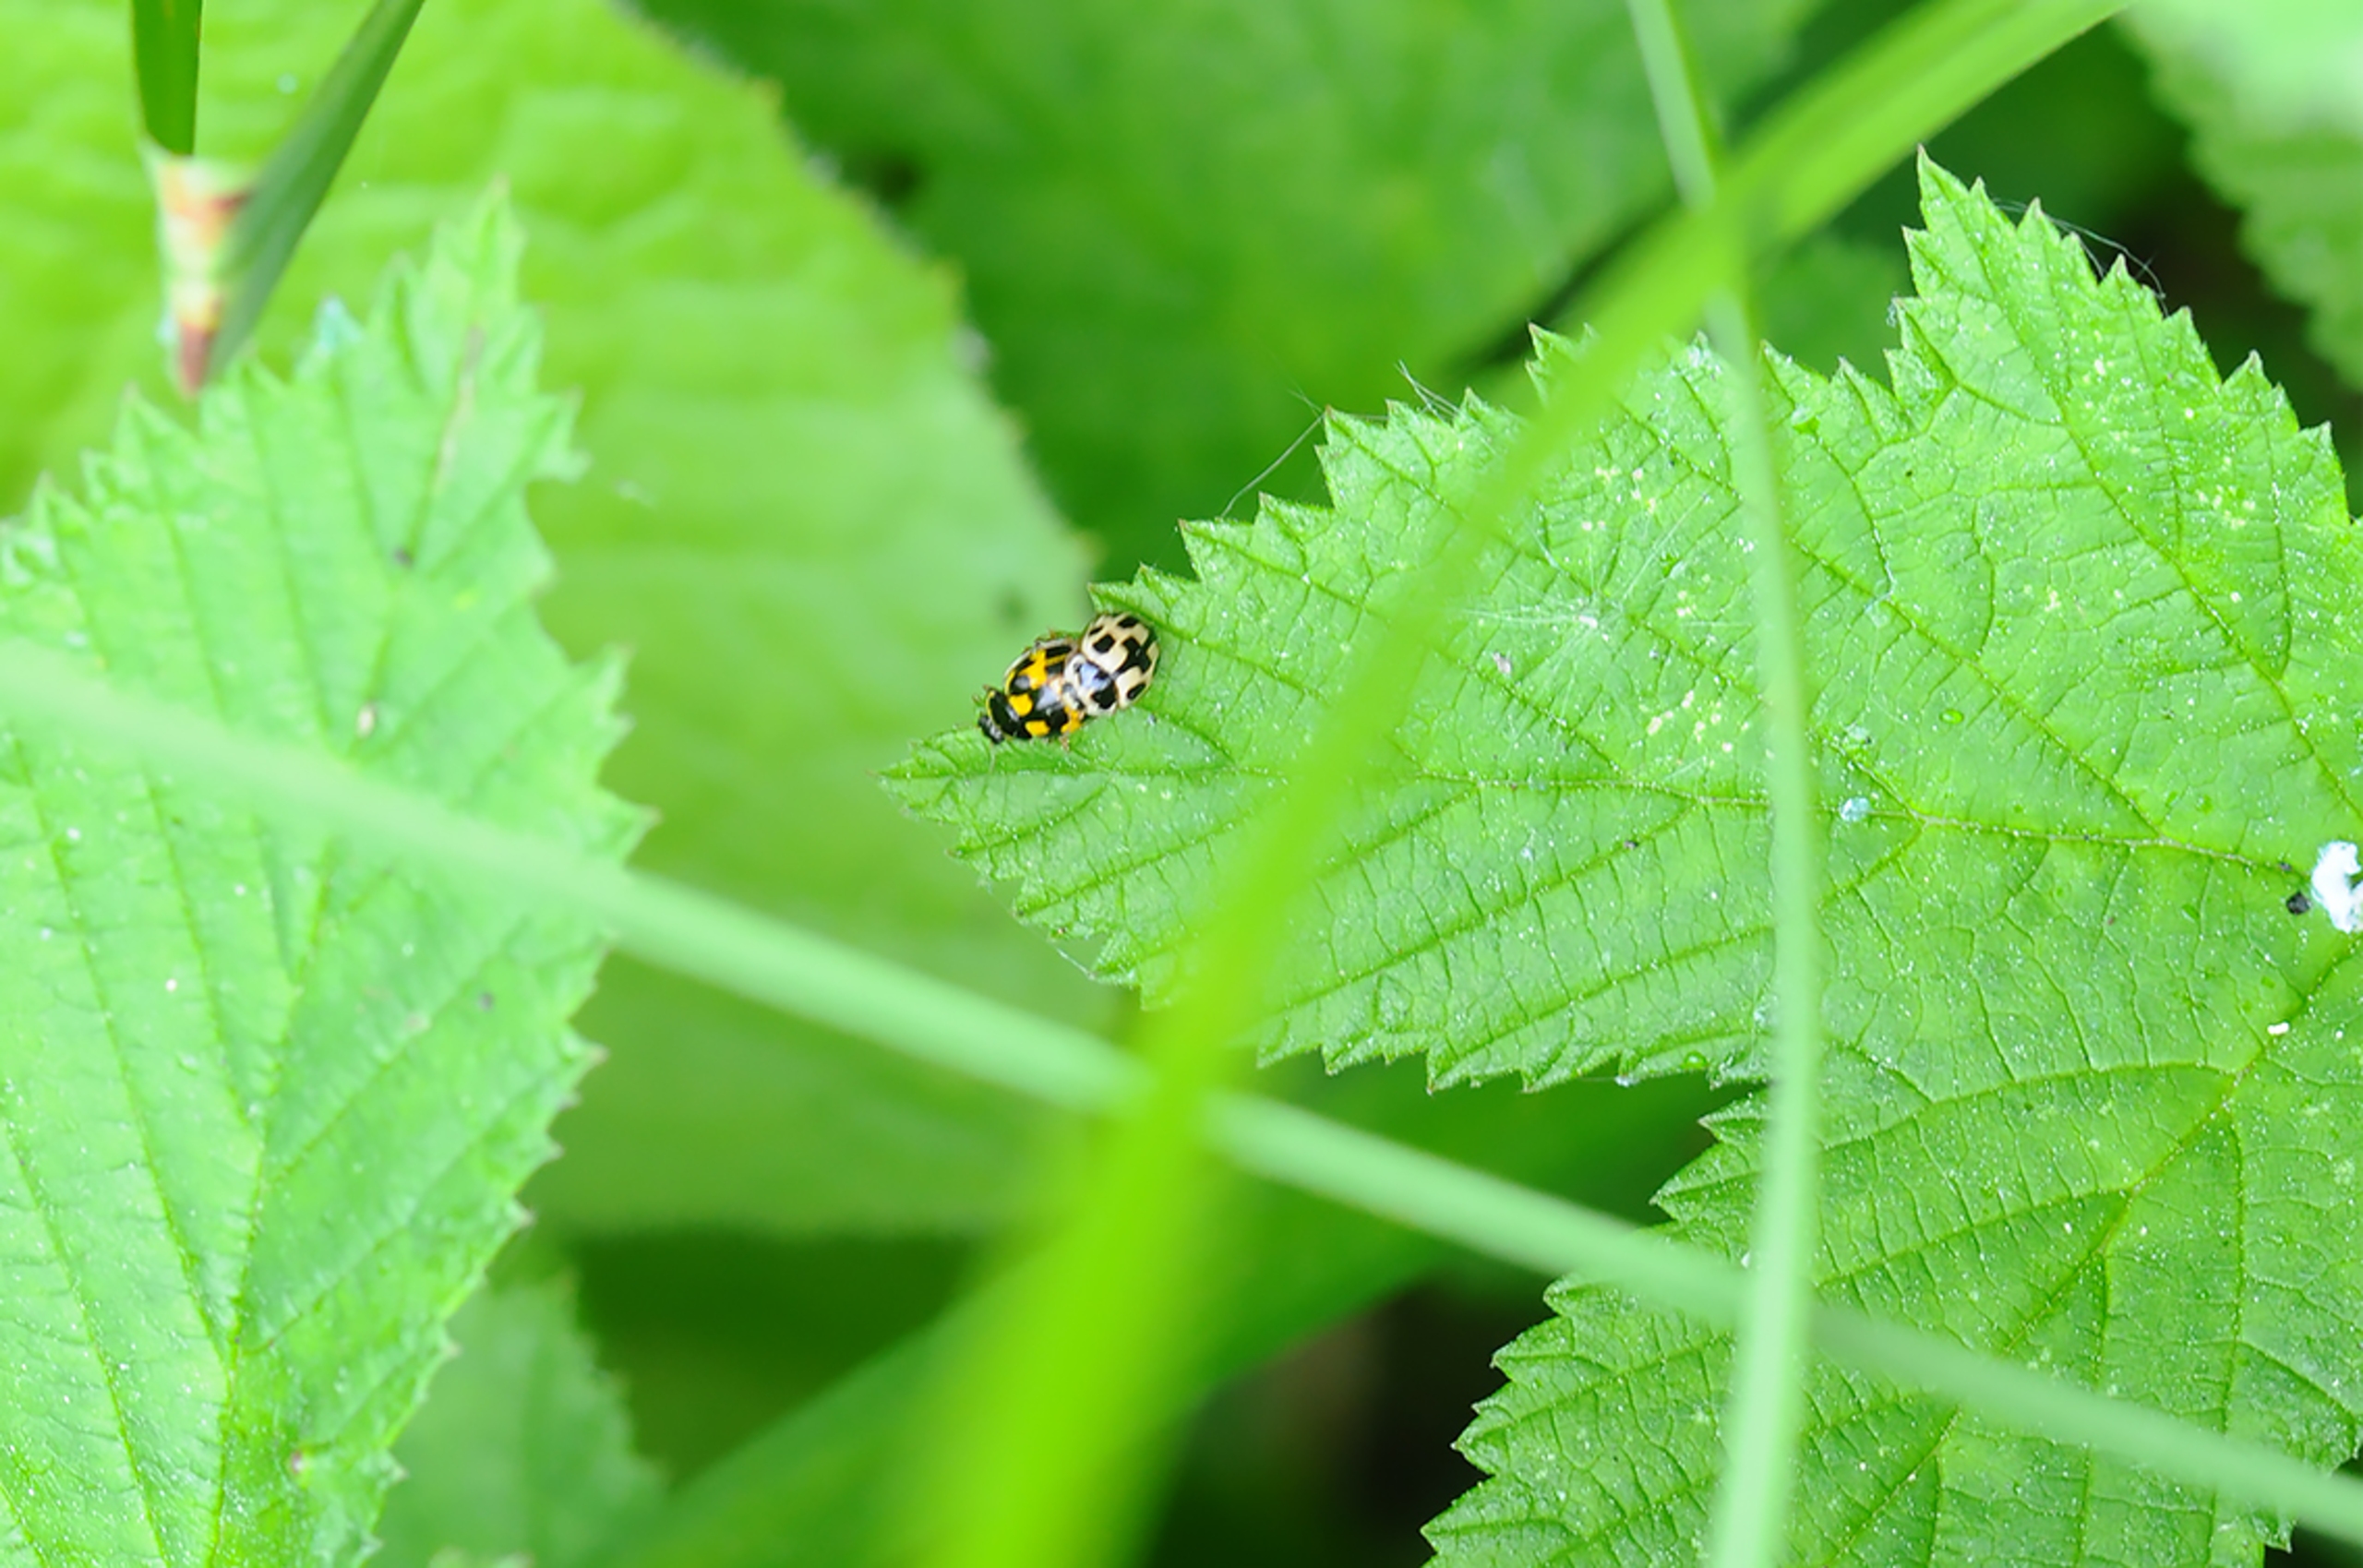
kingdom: Animalia
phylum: Arthropoda
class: Insecta
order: Coleoptera
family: Coccinellidae
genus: Propylaea
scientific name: Propylaea quatuordecimpunctata
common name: Skakbræt
